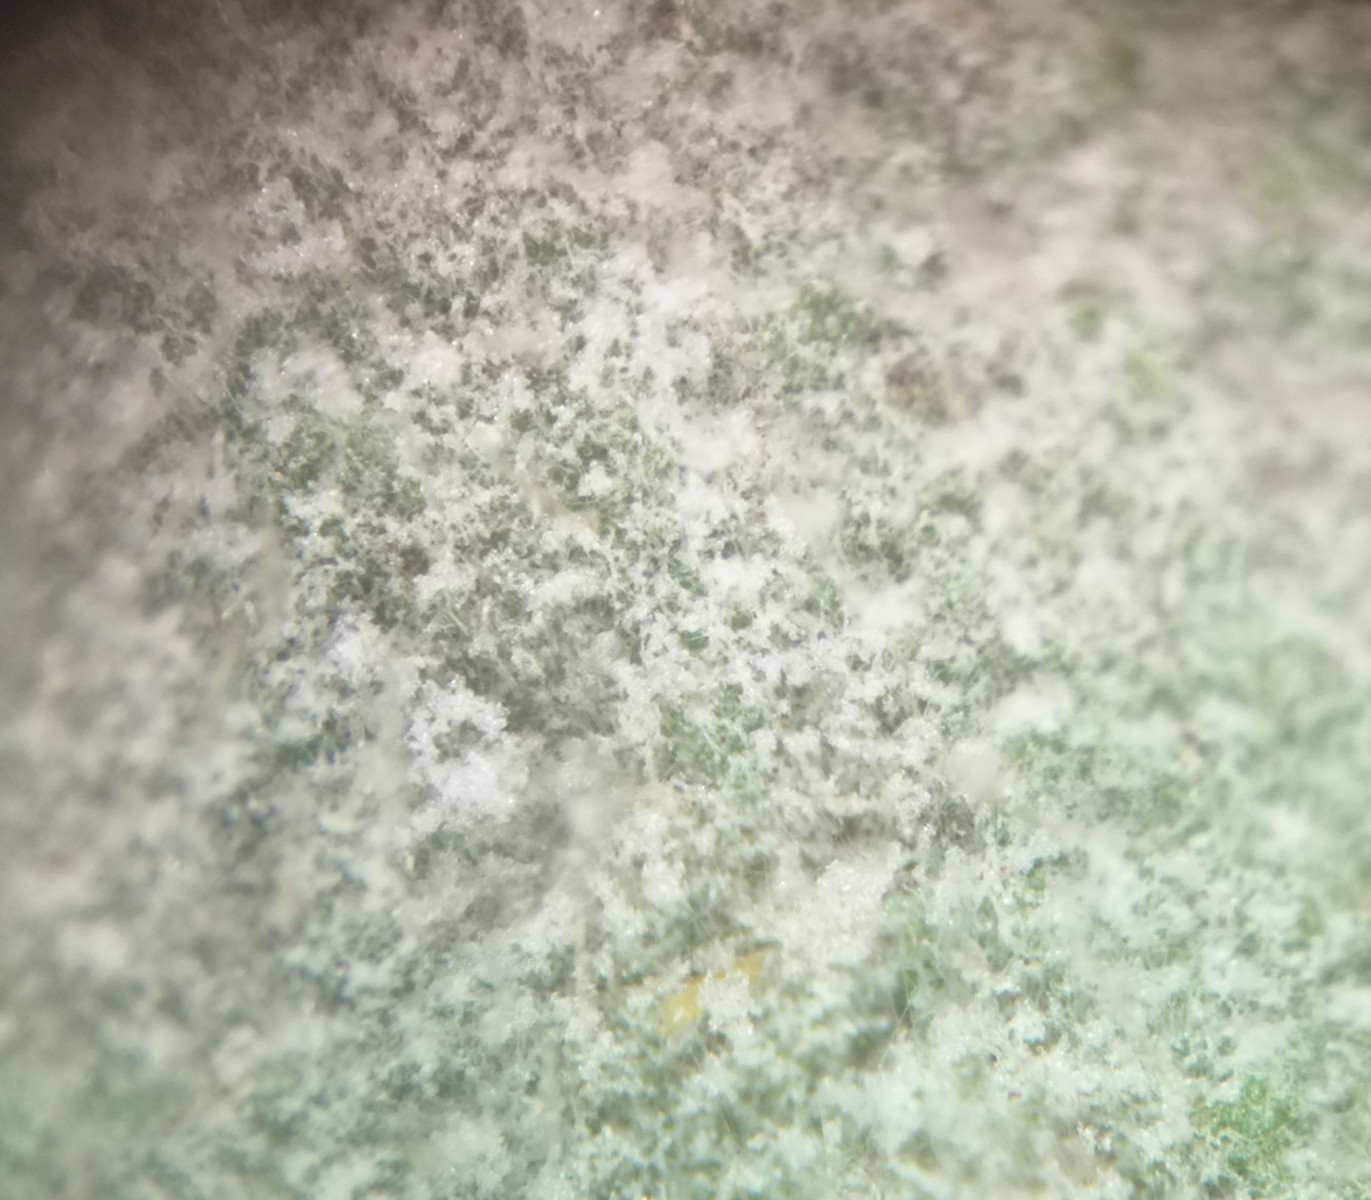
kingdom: Fungi
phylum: Ascomycota
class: Leotiomycetes
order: Helotiales
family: Erysiphaceae
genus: Podosphaera
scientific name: Podosphaera aphanis
